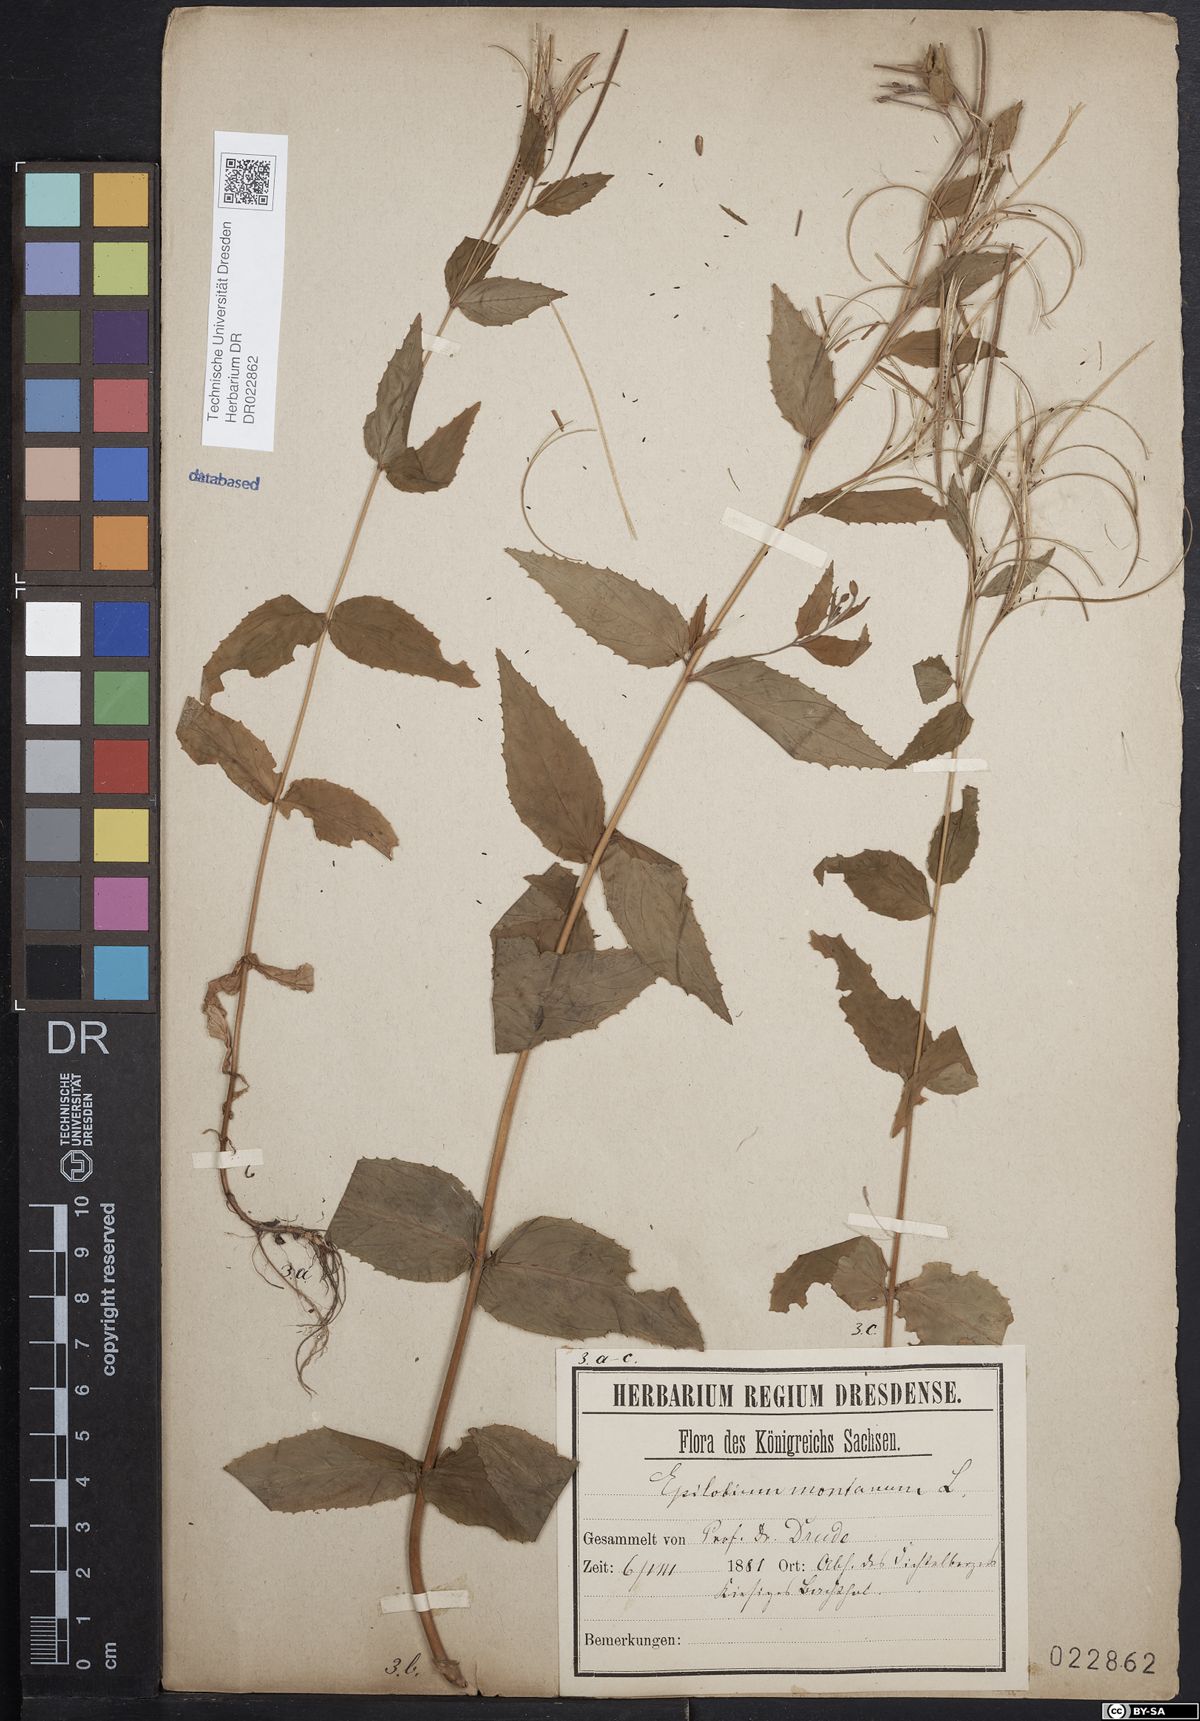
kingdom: Plantae
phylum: Tracheophyta
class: Magnoliopsida
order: Myrtales
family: Onagraceae
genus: Epilobium
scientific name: Epilobium montanum
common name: Broad-leaved willowherb
